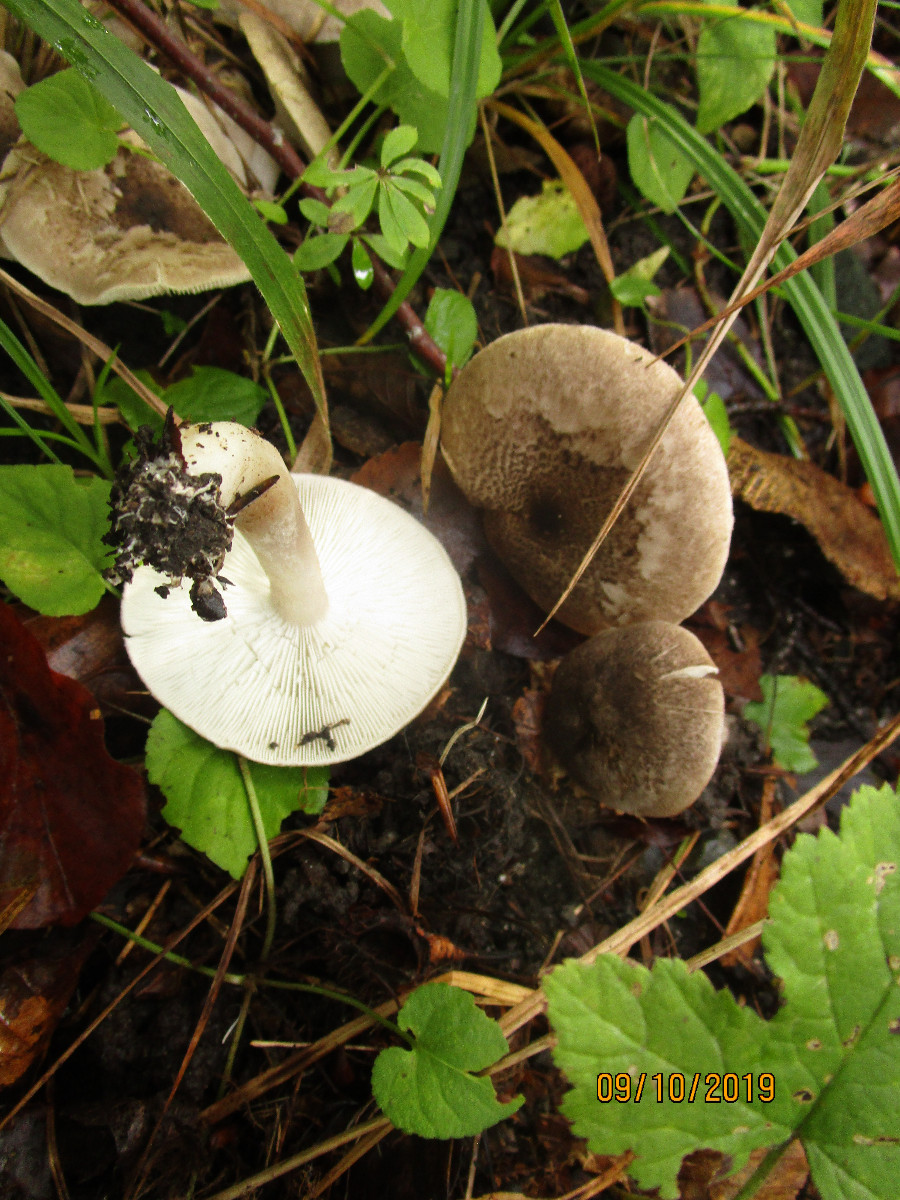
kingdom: Fungi
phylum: Basidiomycota
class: Agaricomycetes
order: Agaricales
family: Tricholomataceae
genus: Tricholoma
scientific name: Tricholoma orirubens
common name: rødbladet ridderhat
